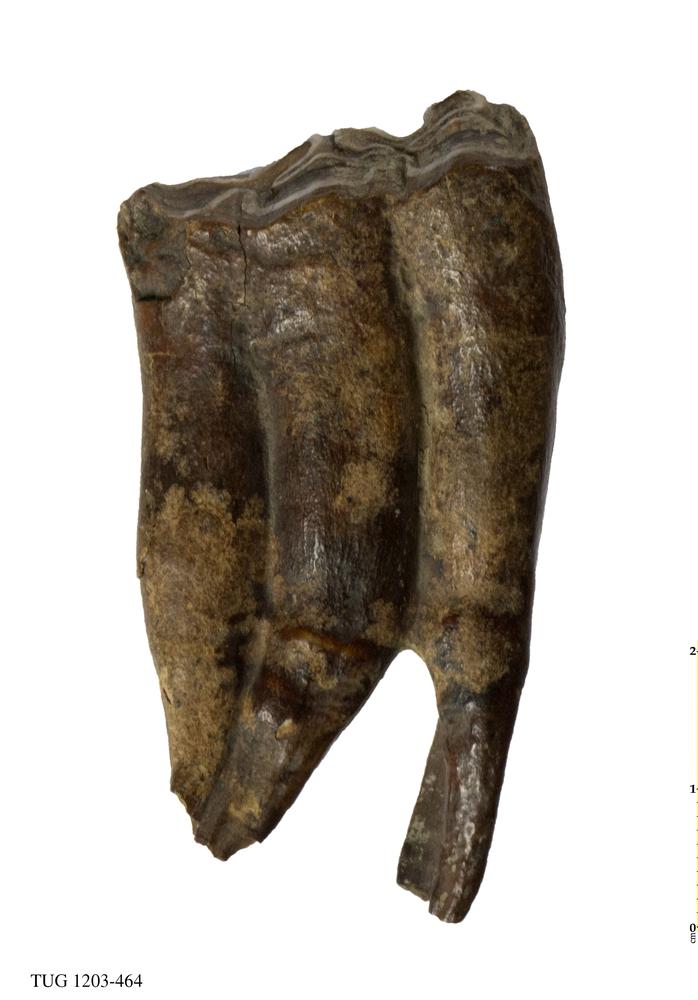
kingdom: Animalia
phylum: Chordata
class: Mammalia
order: Perissodactyla
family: Equidae
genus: Equus
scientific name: Equus
